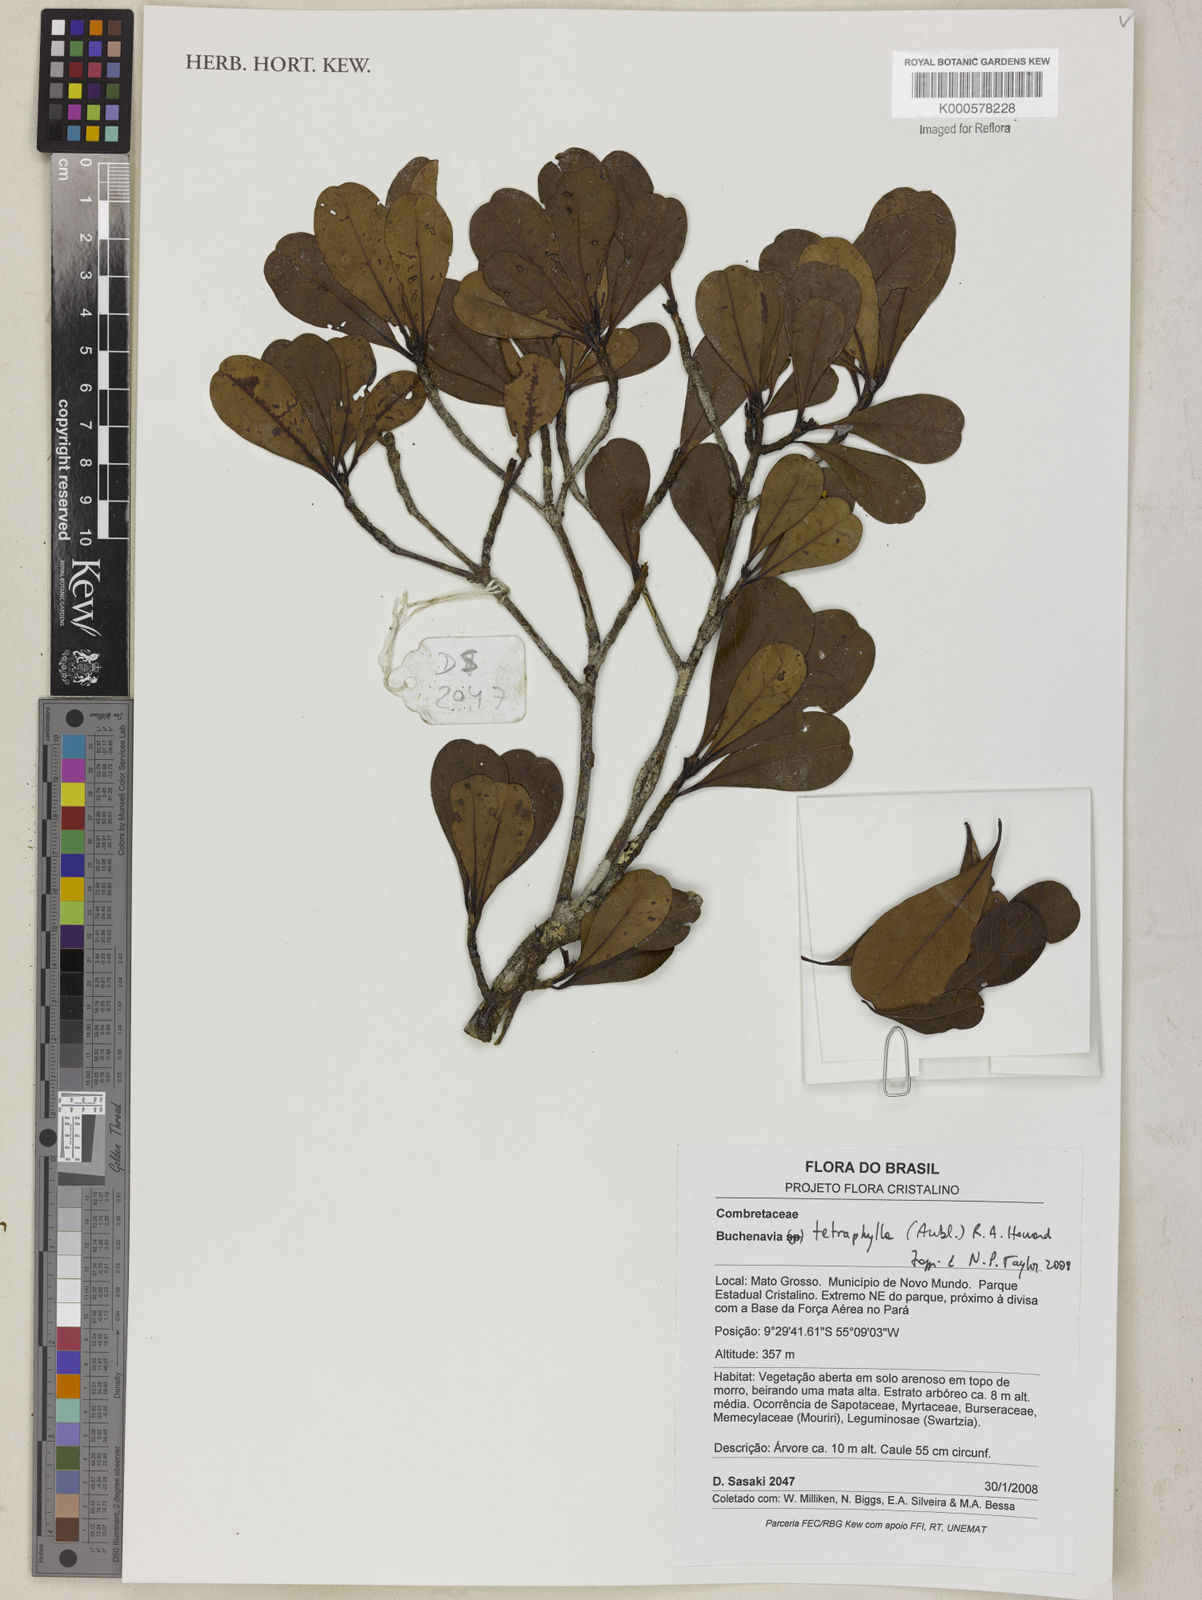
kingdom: Plantae
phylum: Tracheophyta
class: Magnoliopsida
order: Myrtales
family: Combretaceae
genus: Terminalia
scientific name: Terminalia tetraphylla
